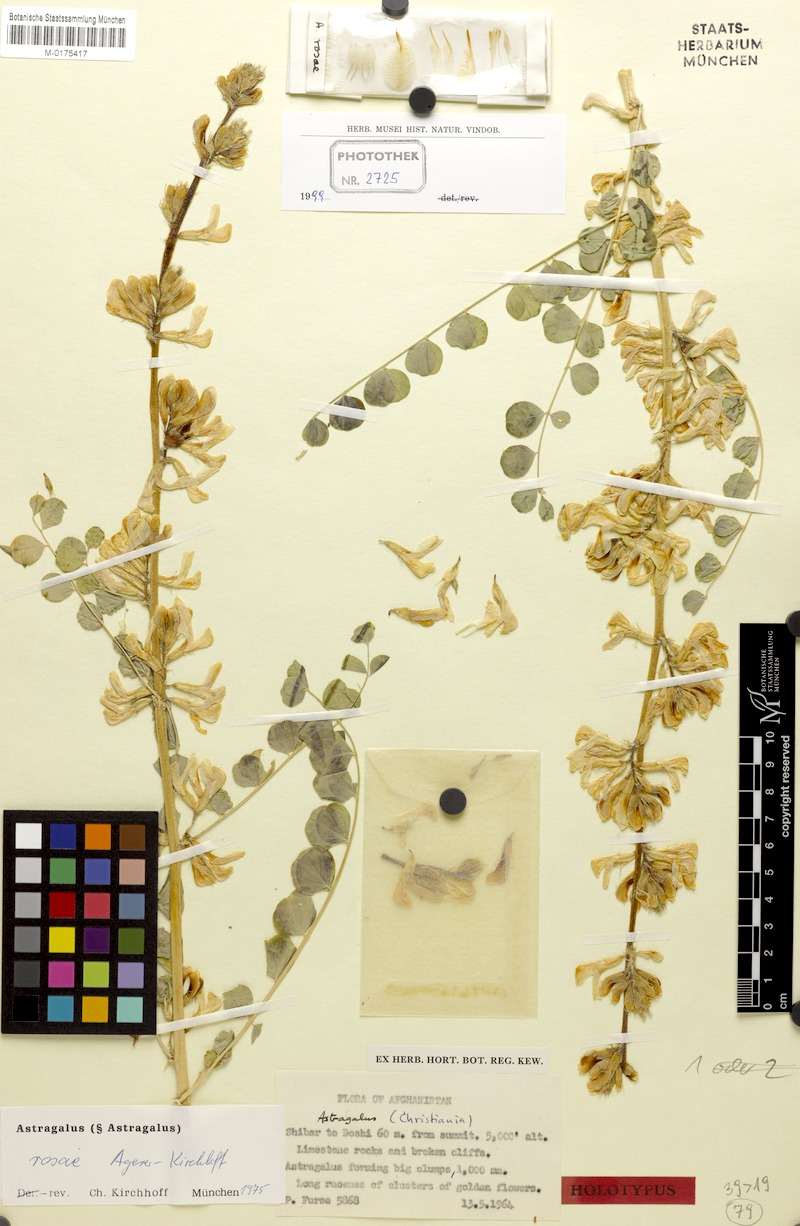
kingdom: Plantae
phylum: Tracheophyta
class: Magnoliopsida
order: Fabales
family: Fabaceae
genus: Astragalus
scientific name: Astragalus rosae
